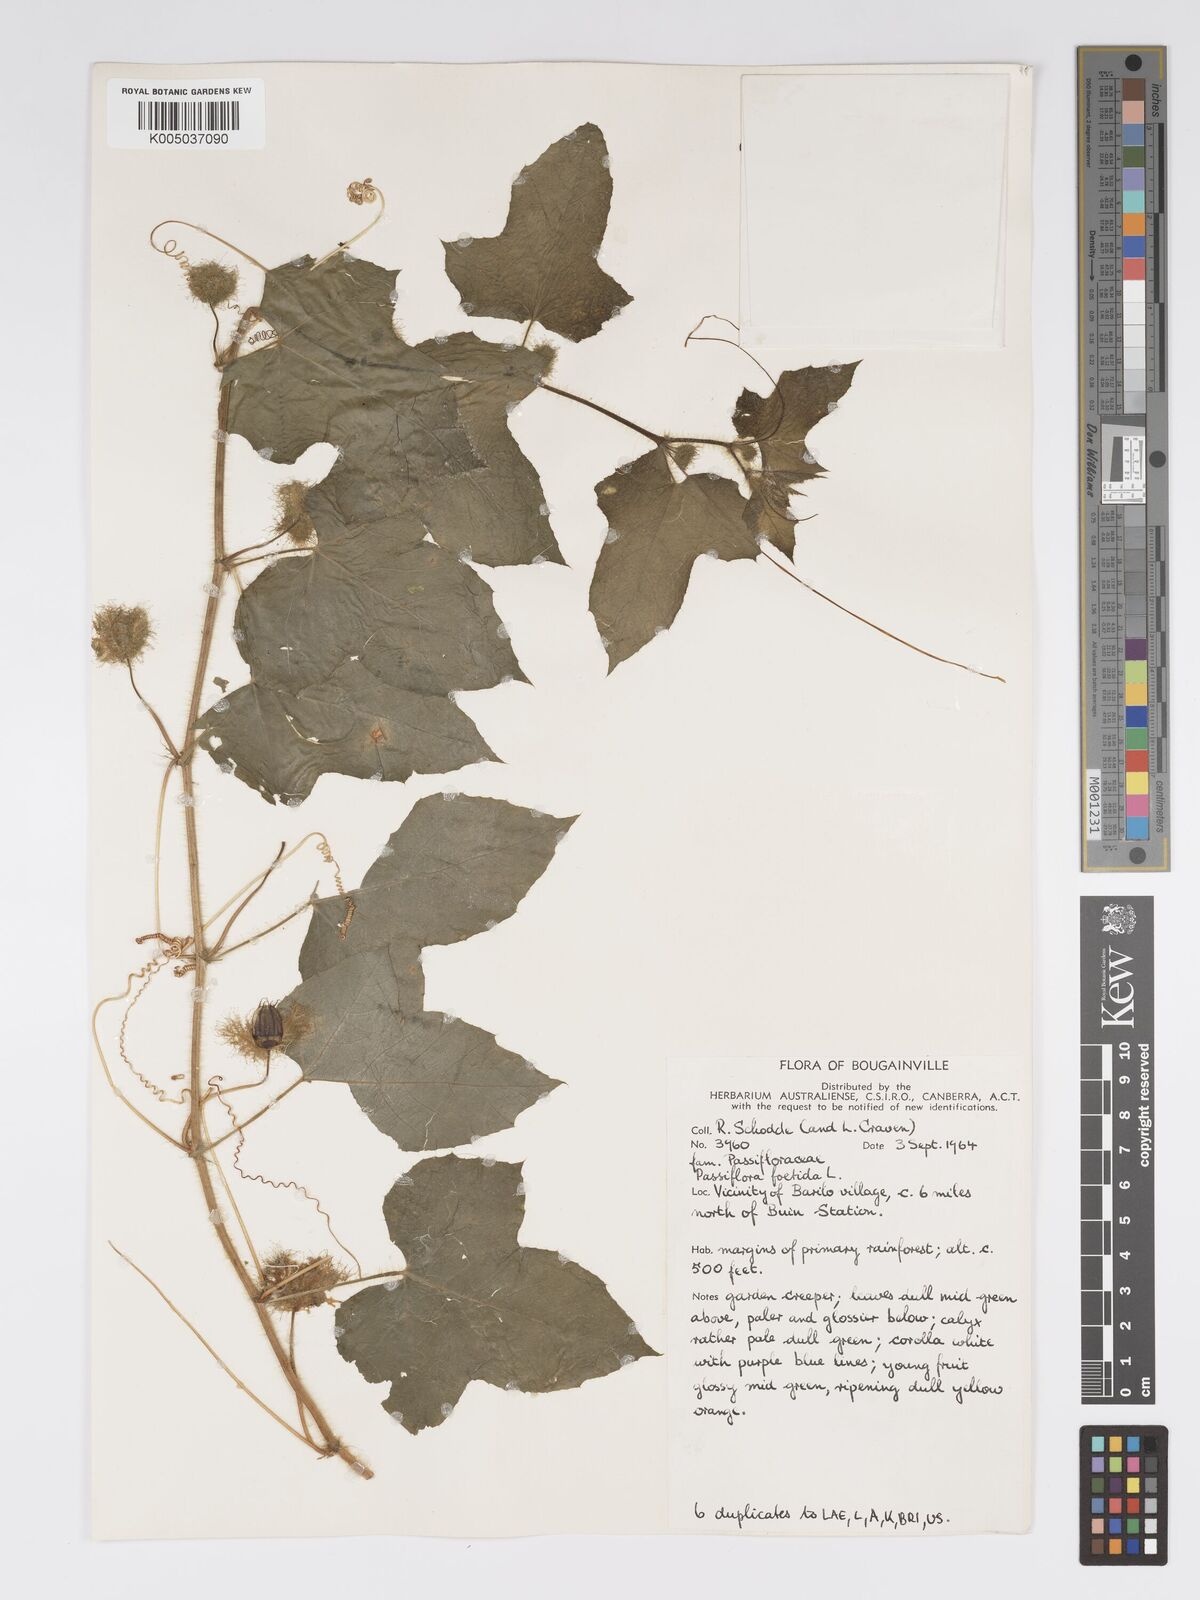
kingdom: Plantae
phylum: Tracheophyta
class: Magnoliopsida
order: Malpighiales
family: Passifloraceae
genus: Passiflora
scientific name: Passiflora foetida
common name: Fetid passionflower
